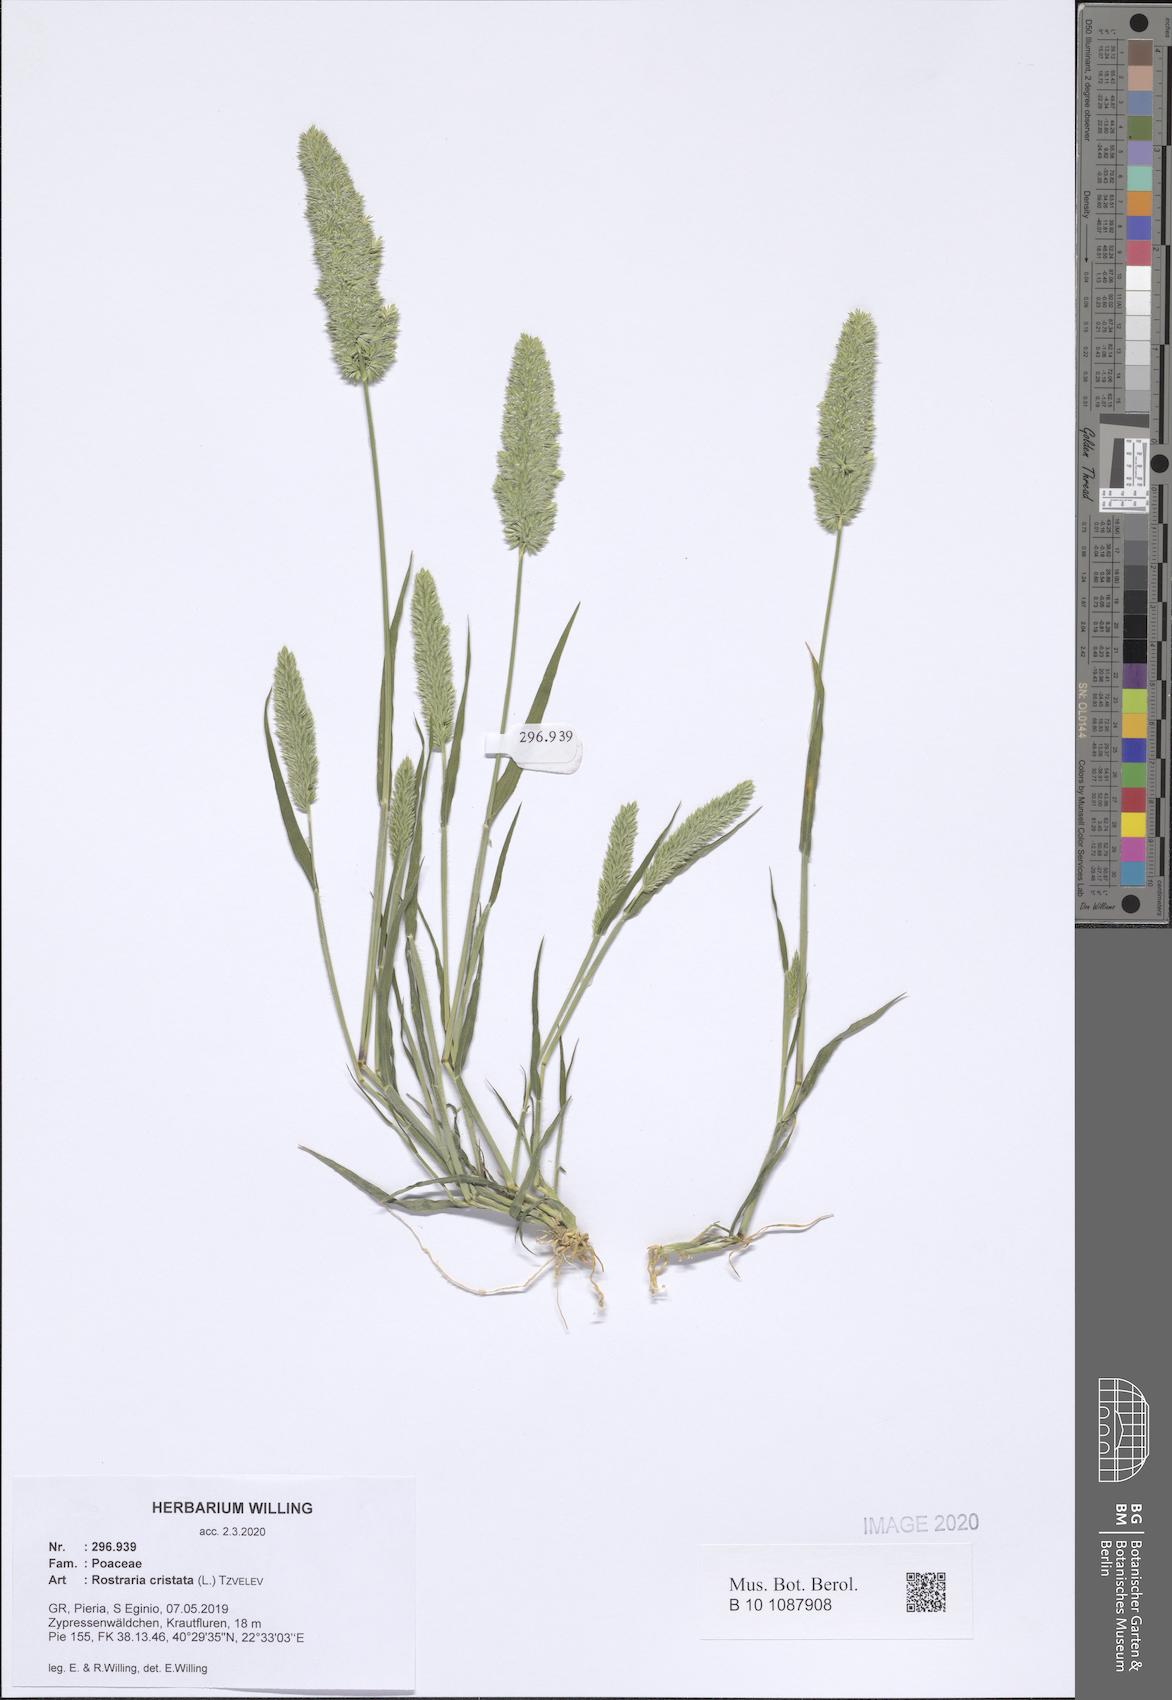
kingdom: Plantae
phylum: Tracheophyta
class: Liliopsida
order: Poales
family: Poaceae
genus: Rostraria
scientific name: Rostraria cristata
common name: Mediterranean hair-grass
